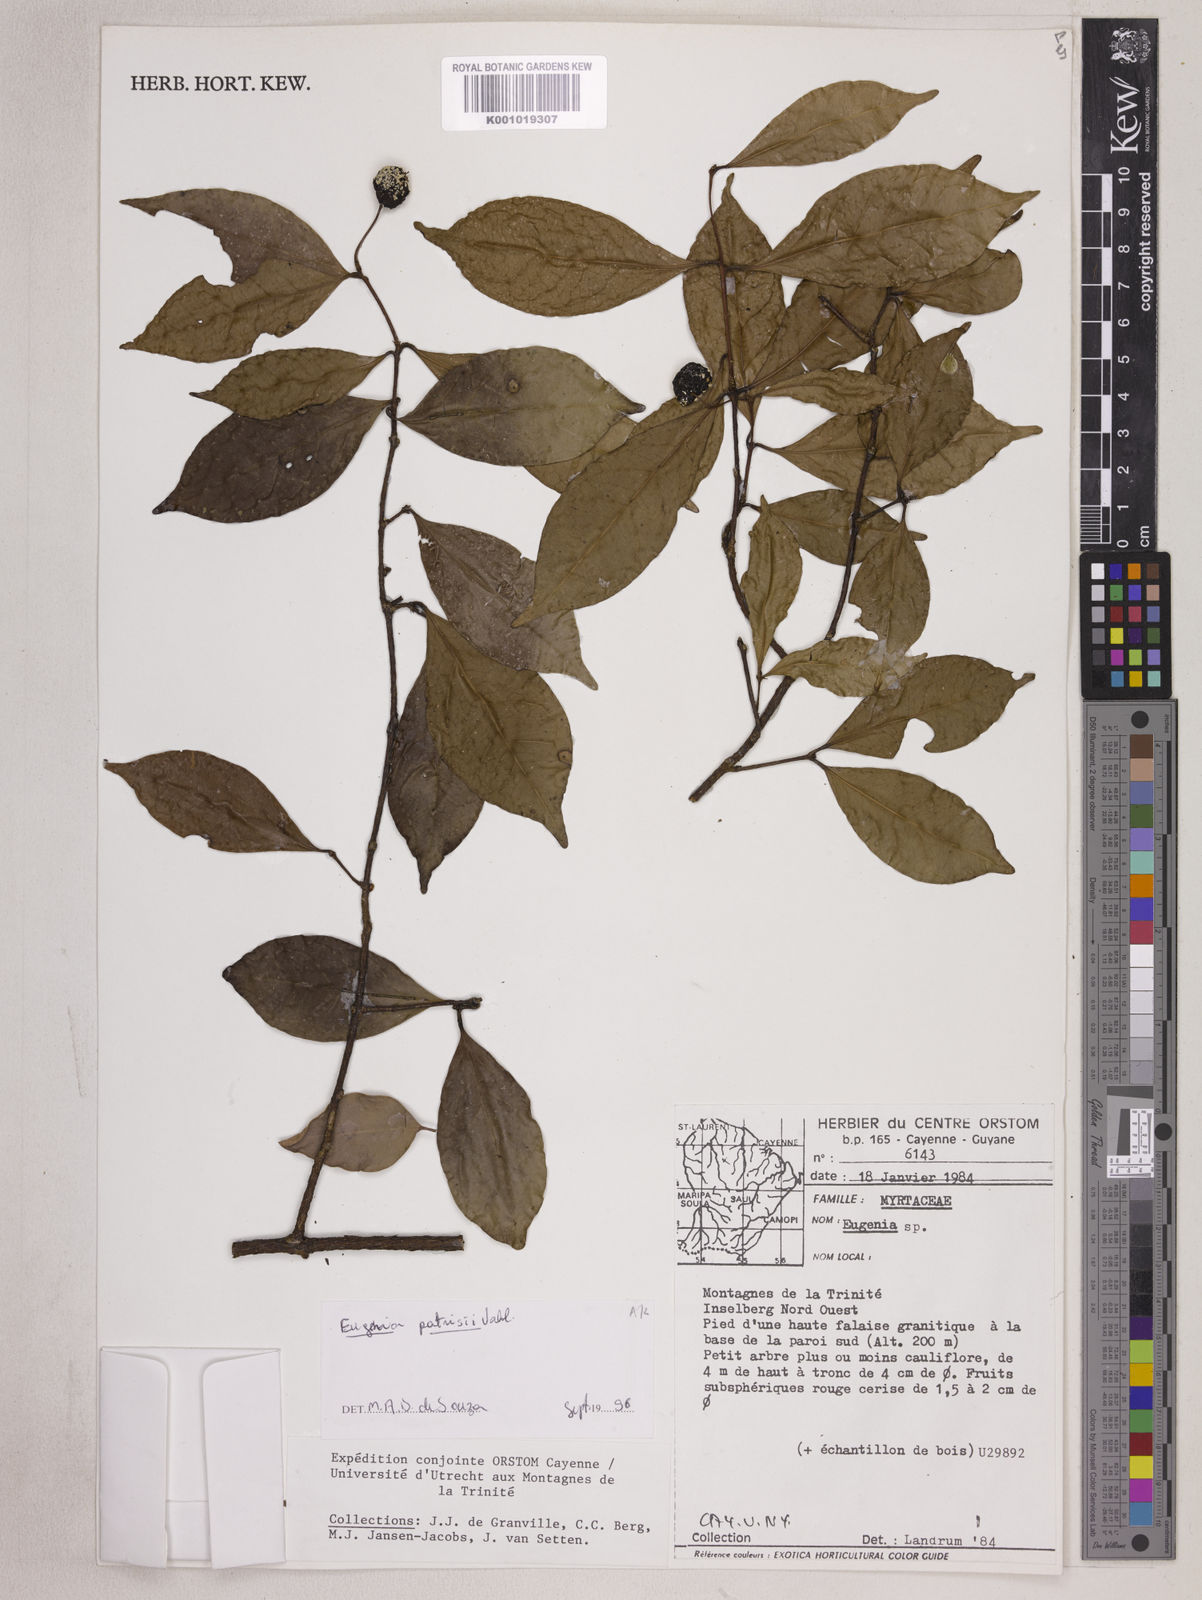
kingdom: Plantae
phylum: Tracheophyta
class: Magnoliopsida
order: Myrtales
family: Myrtaceae
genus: Eugenia
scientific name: Eugenia patrisii
